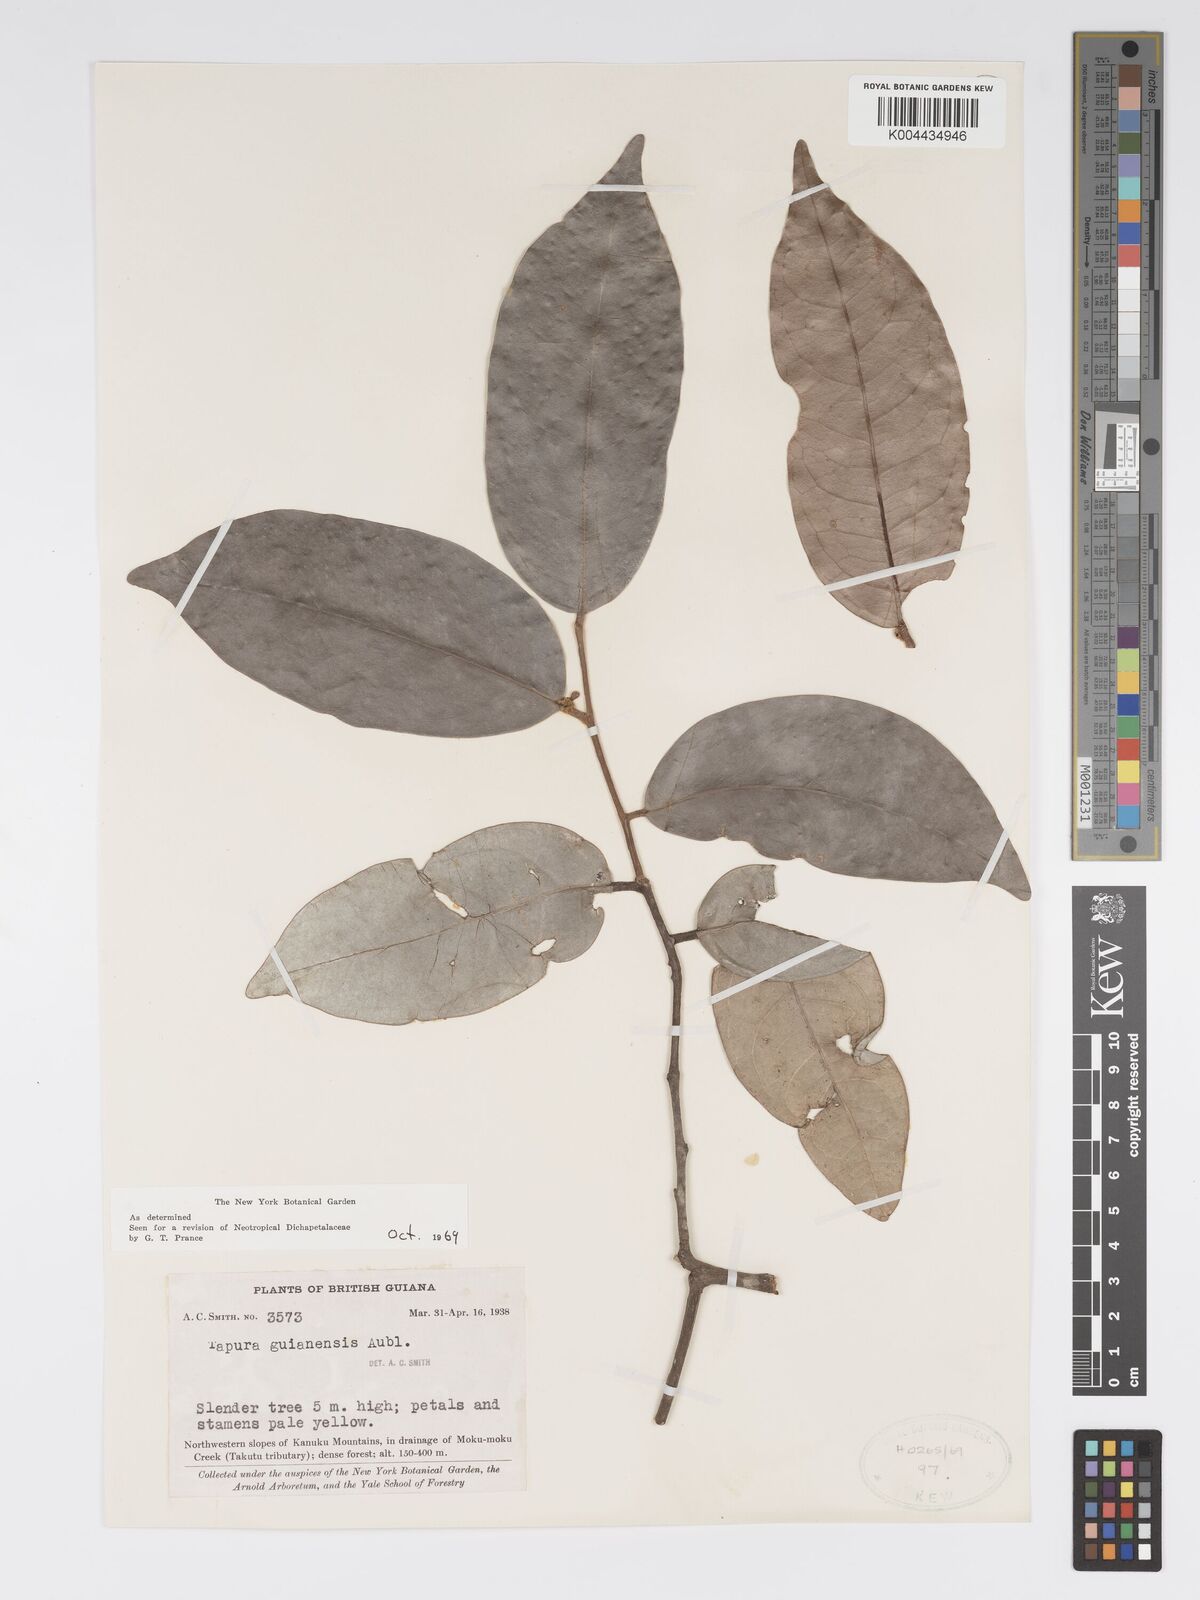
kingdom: Plantae
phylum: Tracheophyta
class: Magnoliopsida
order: Malpighiales
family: Dichapetalaceae
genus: Tapura
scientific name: Tapura guianensis
